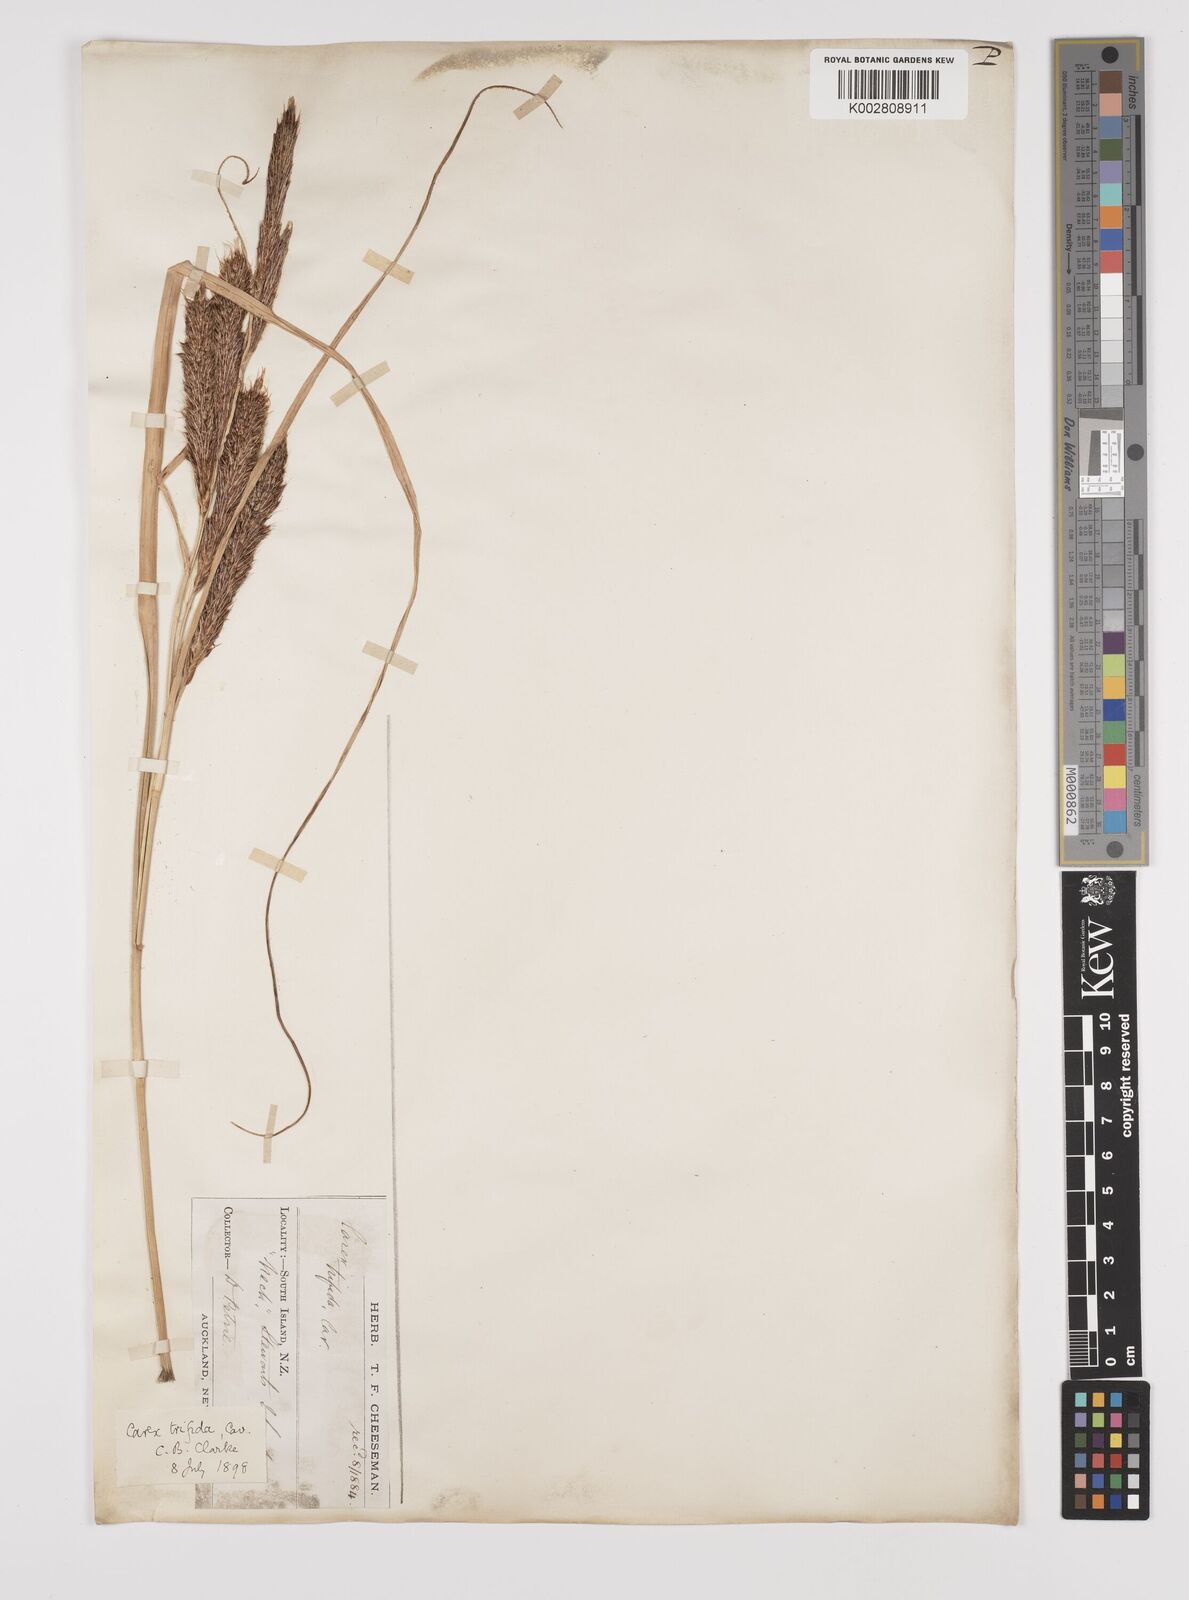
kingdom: Plantae
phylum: Tracheophyta
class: Liliopsida
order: Poales
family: Cyperaceae
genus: Carex
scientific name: Carex trifida
